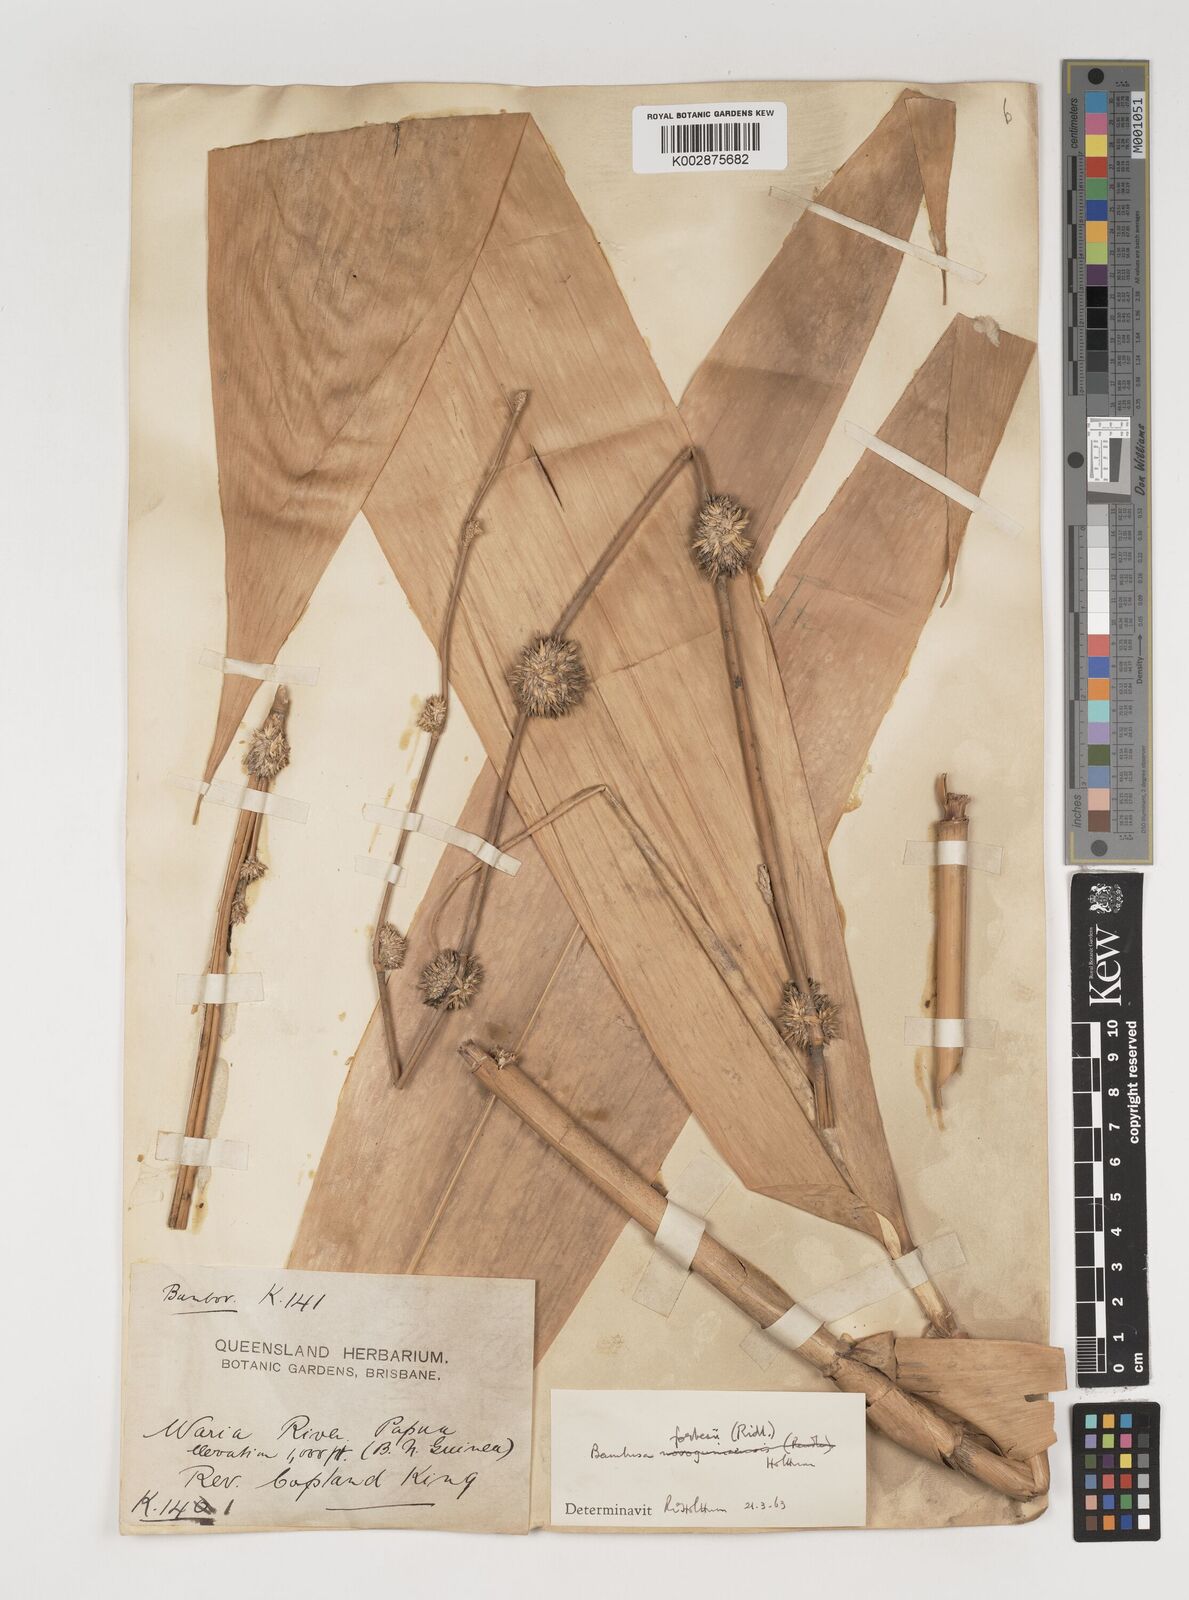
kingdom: Plantae
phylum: Tracheophyta
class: Liliopsida
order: Poales
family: Poaceae
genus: Neololeba
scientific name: Neololeba atra
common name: Cape bamboo
